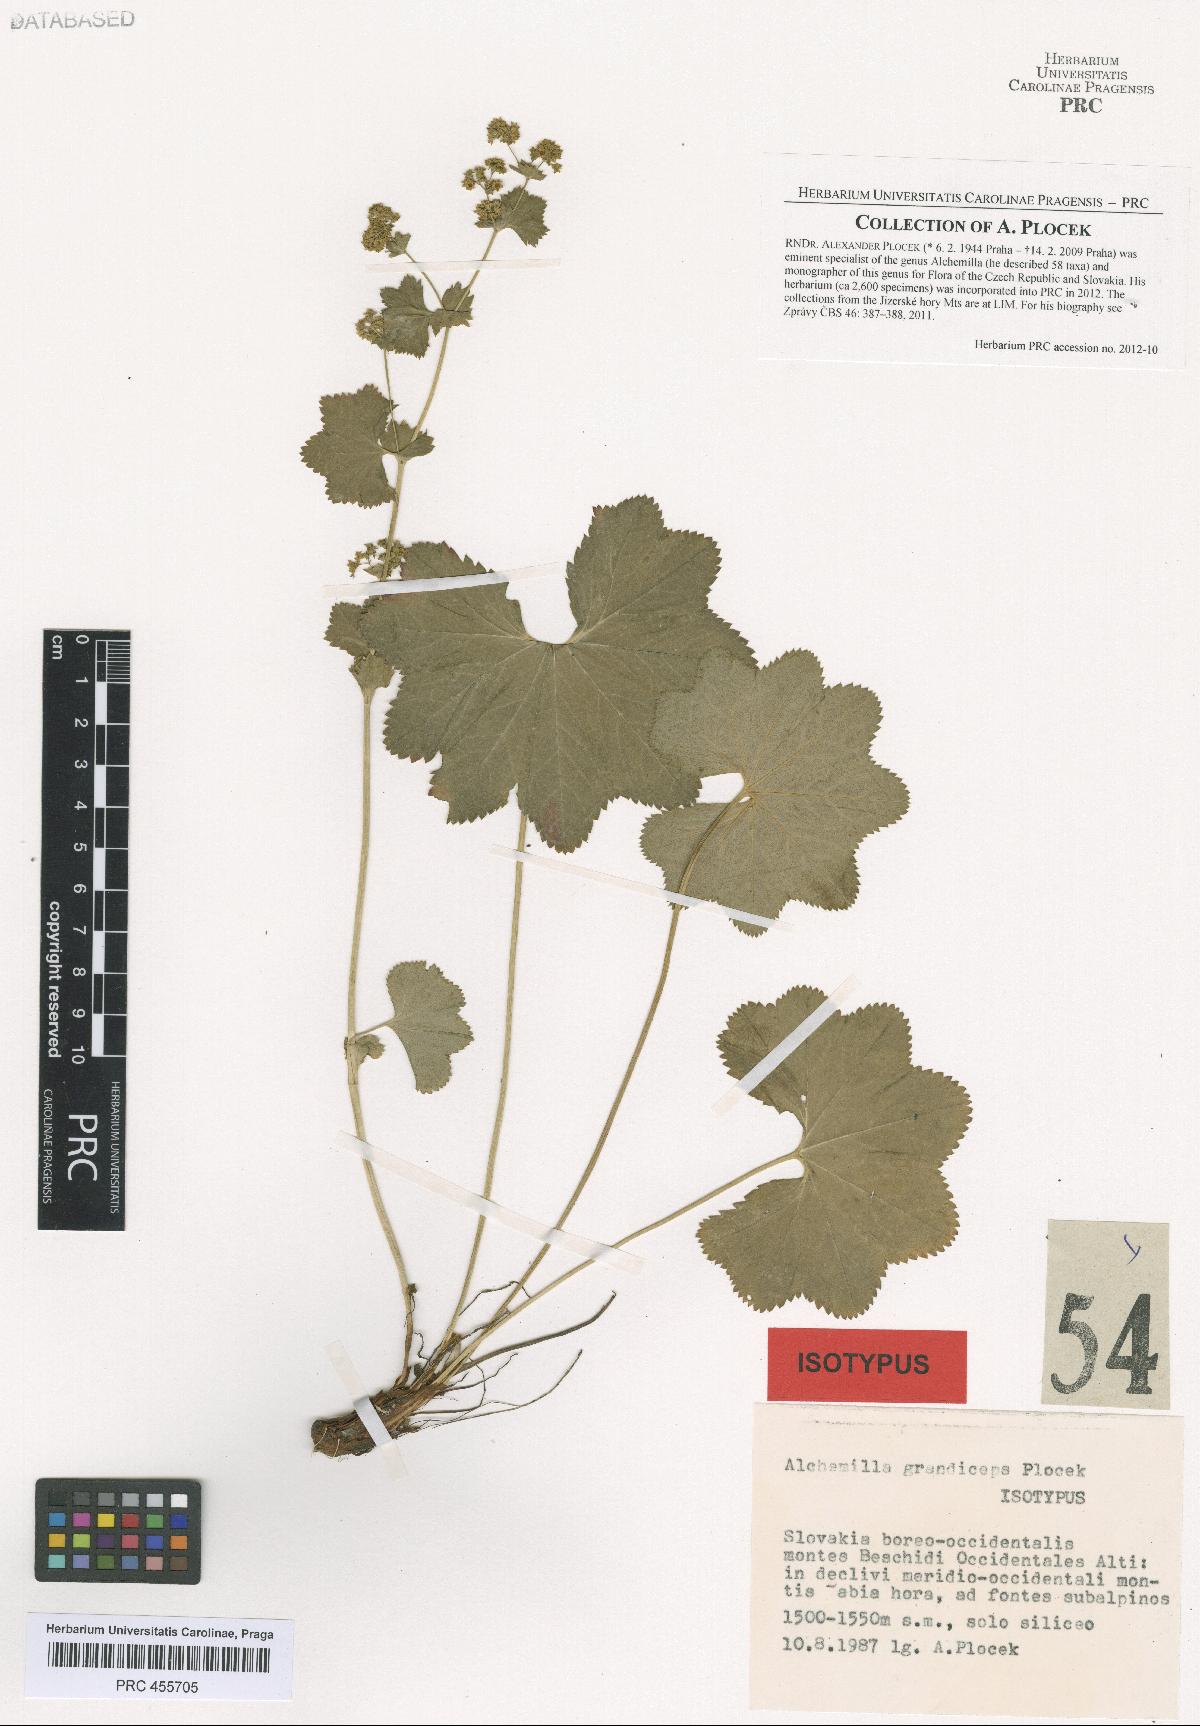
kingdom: Plantae
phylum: Tracheophyta
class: Magnoliopsida
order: Rosales
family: Rosaceae
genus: Alchemilla
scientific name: Alchemilla grandiceps
